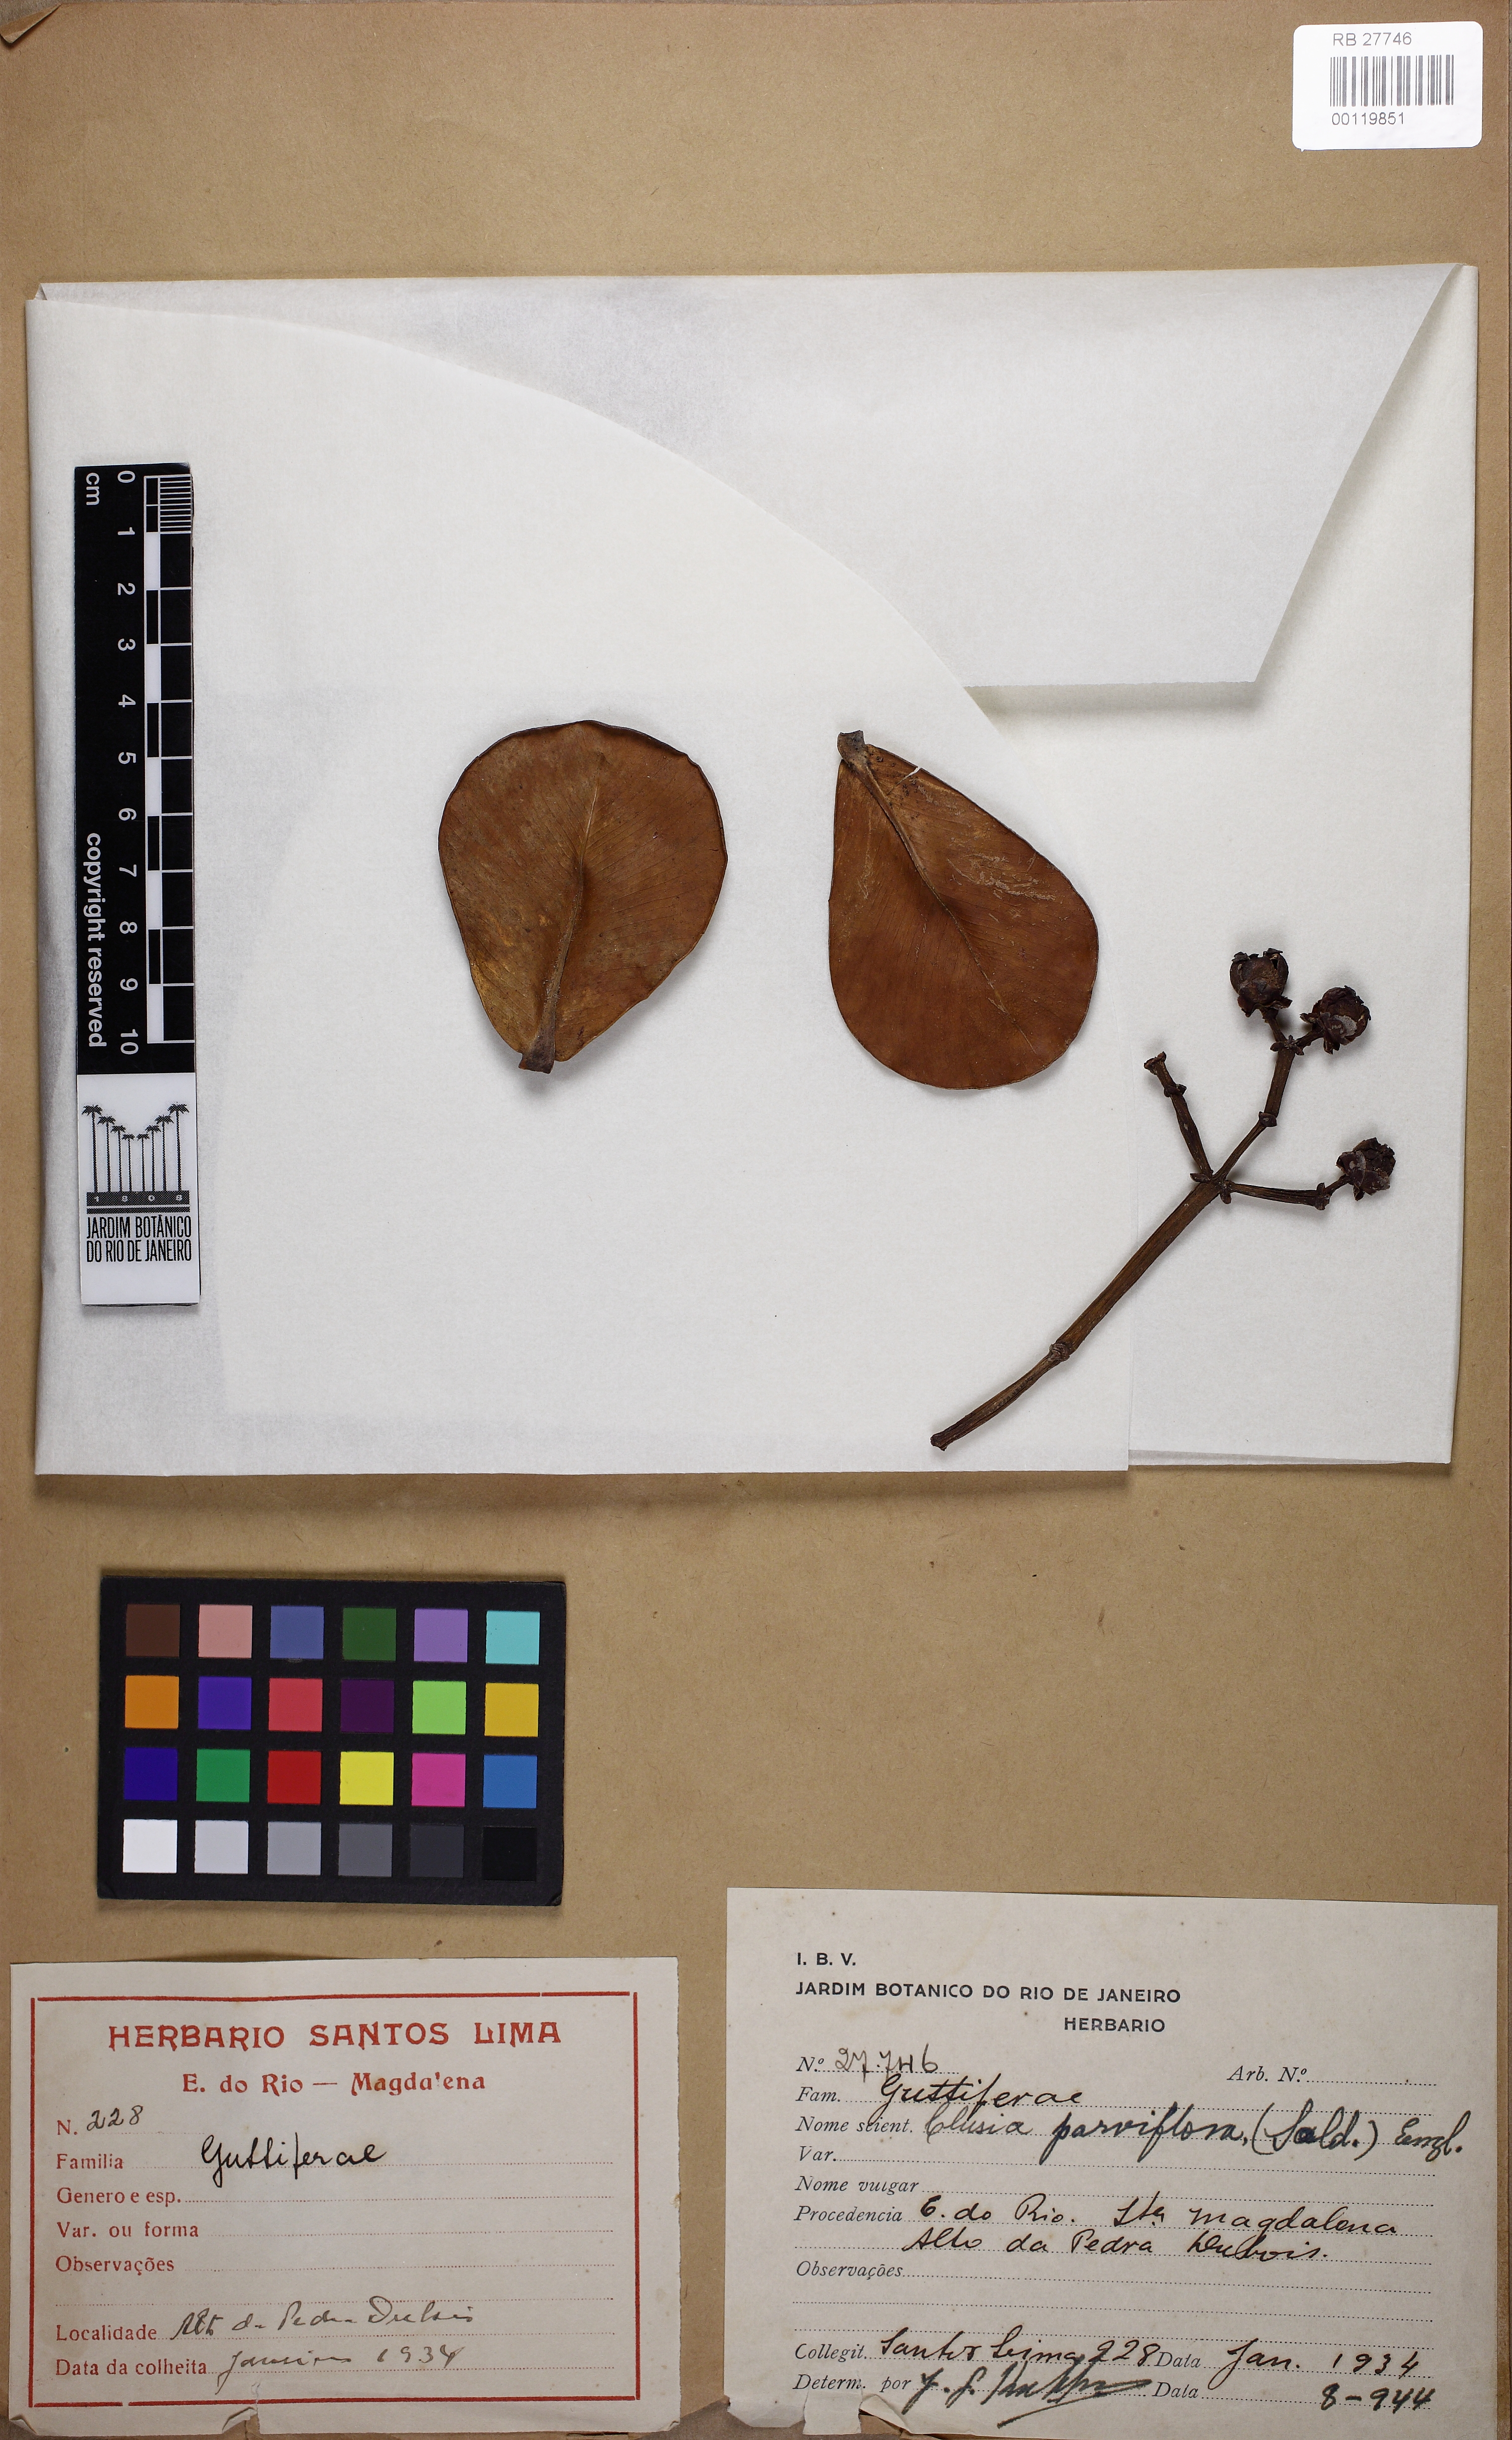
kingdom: Plantae
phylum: Tracheophyta
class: Magnoliopsida
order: Malpighiales
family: Clusiaceae
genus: Clusia
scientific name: Clusia criuva
